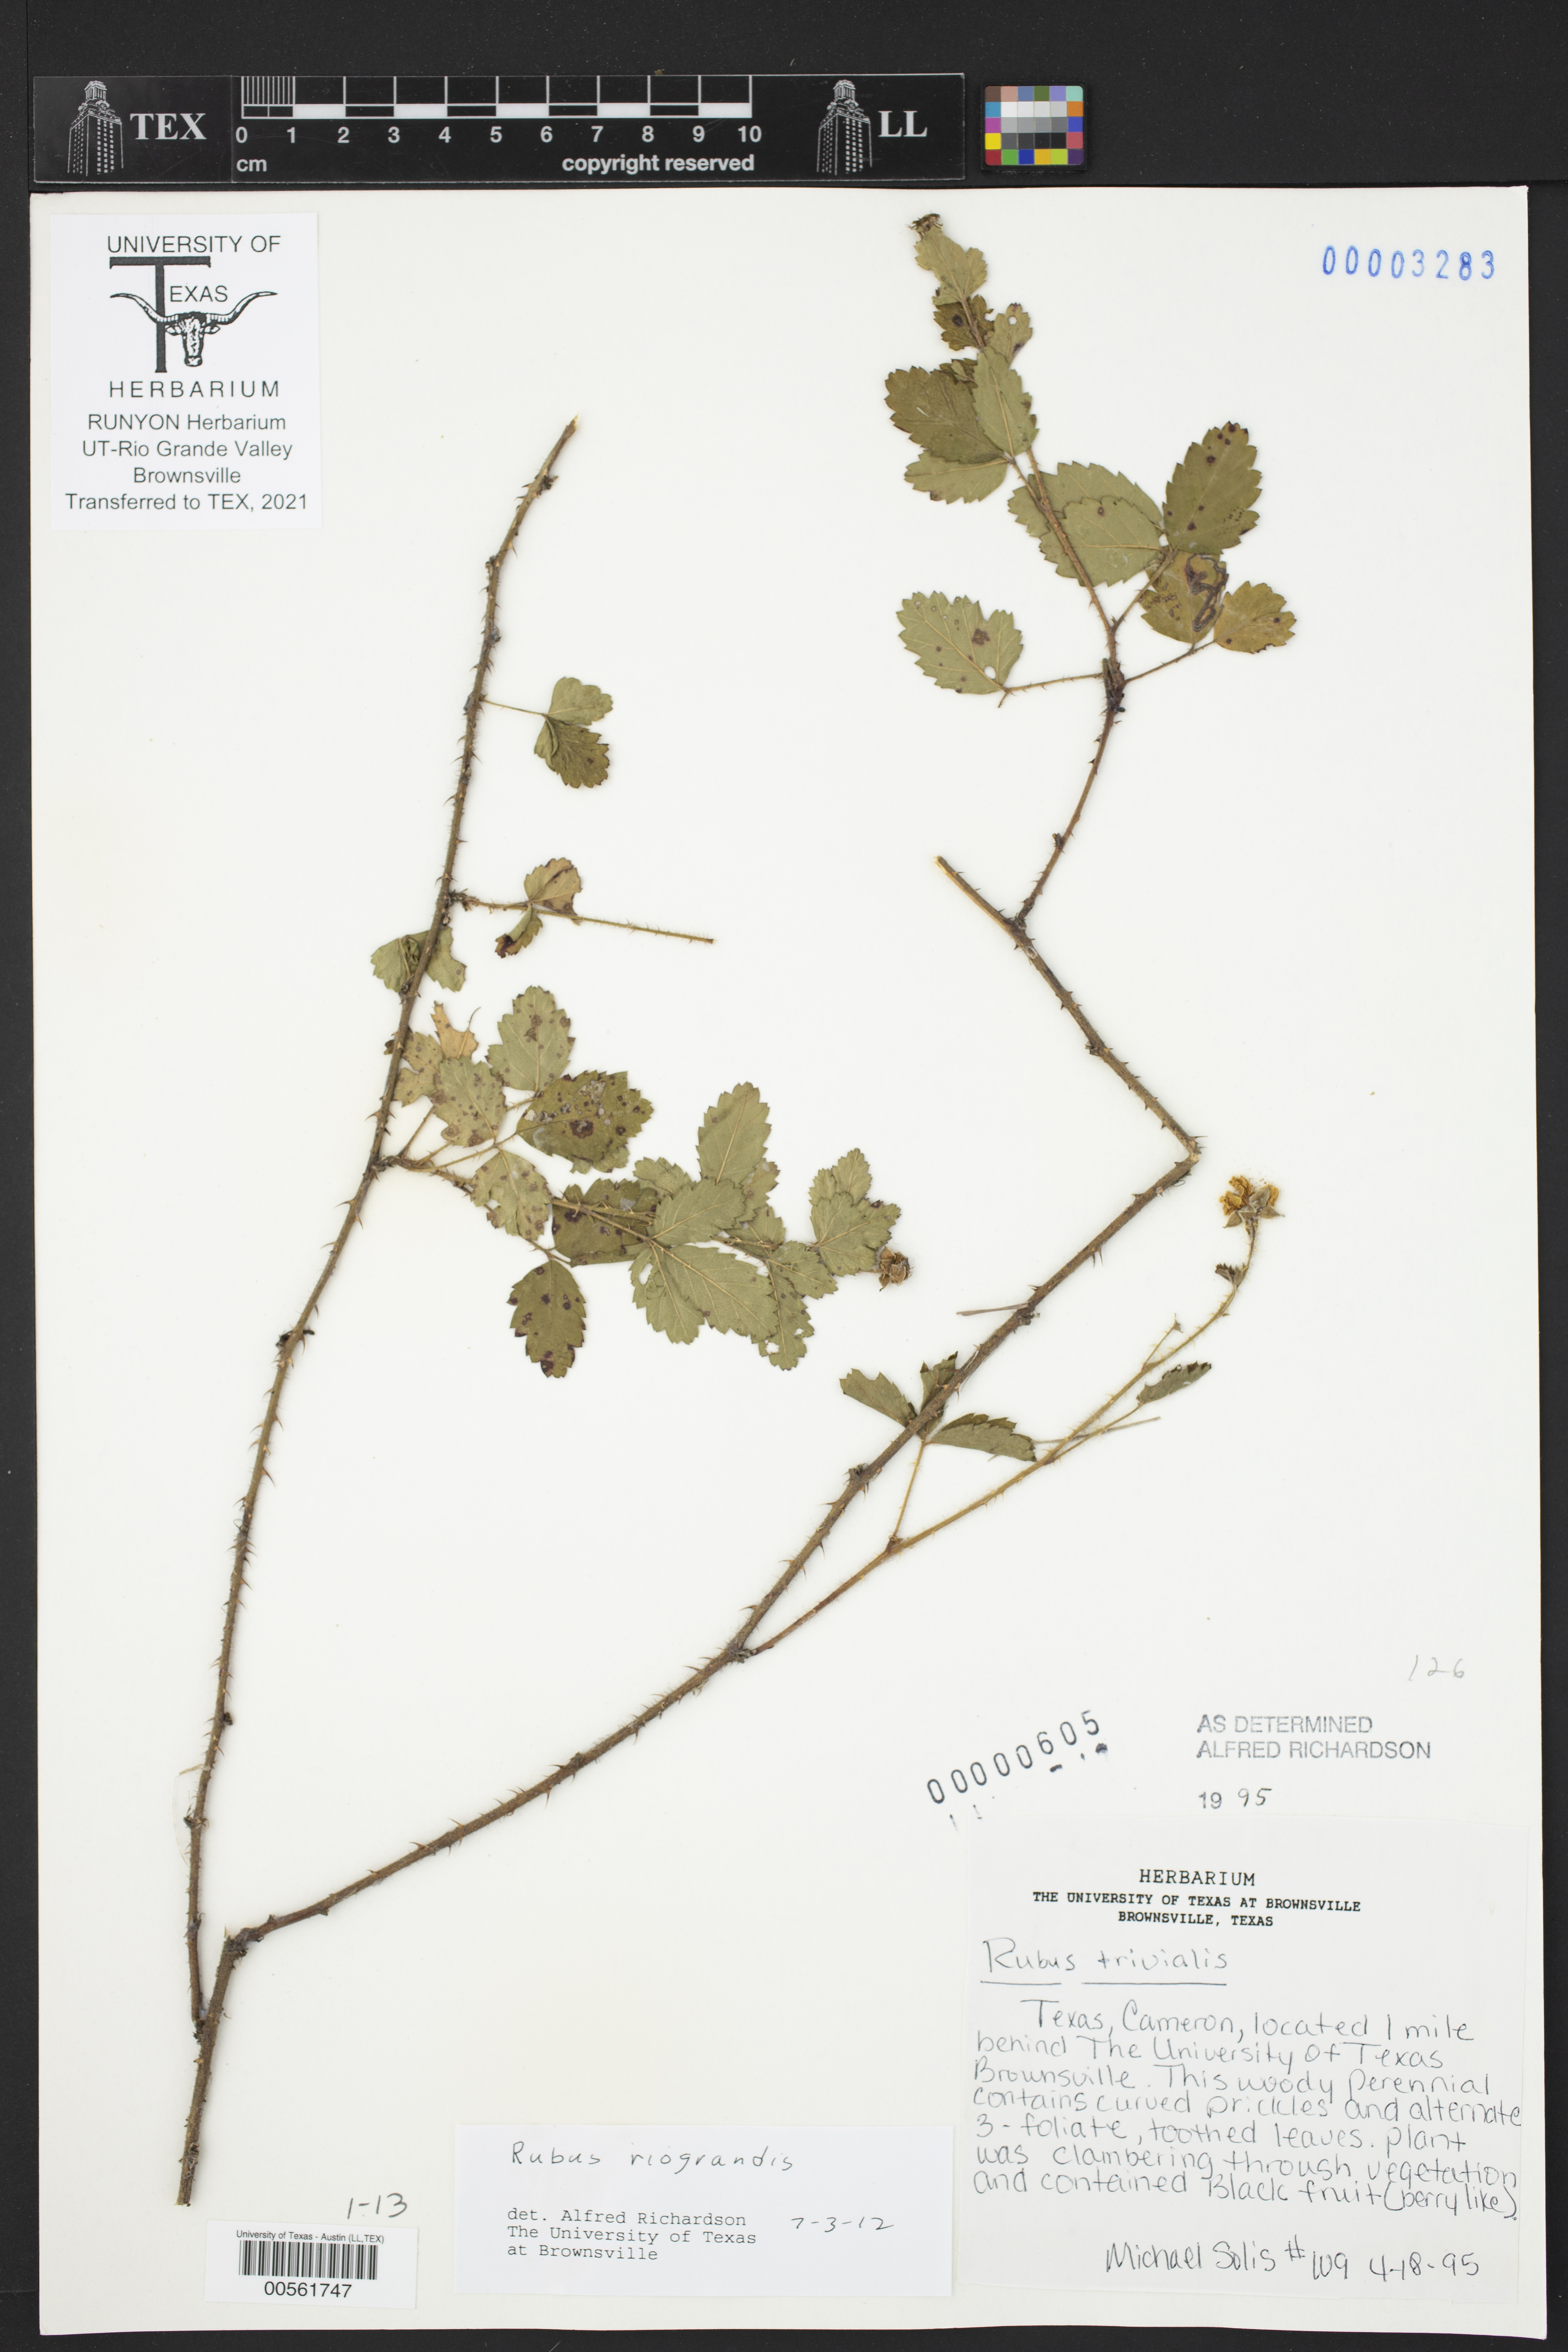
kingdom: Plantae
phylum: Tracheophyta
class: Magnoliopsida
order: Rosales
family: Rosaceae
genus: Rubus
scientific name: Rubus riograndis
